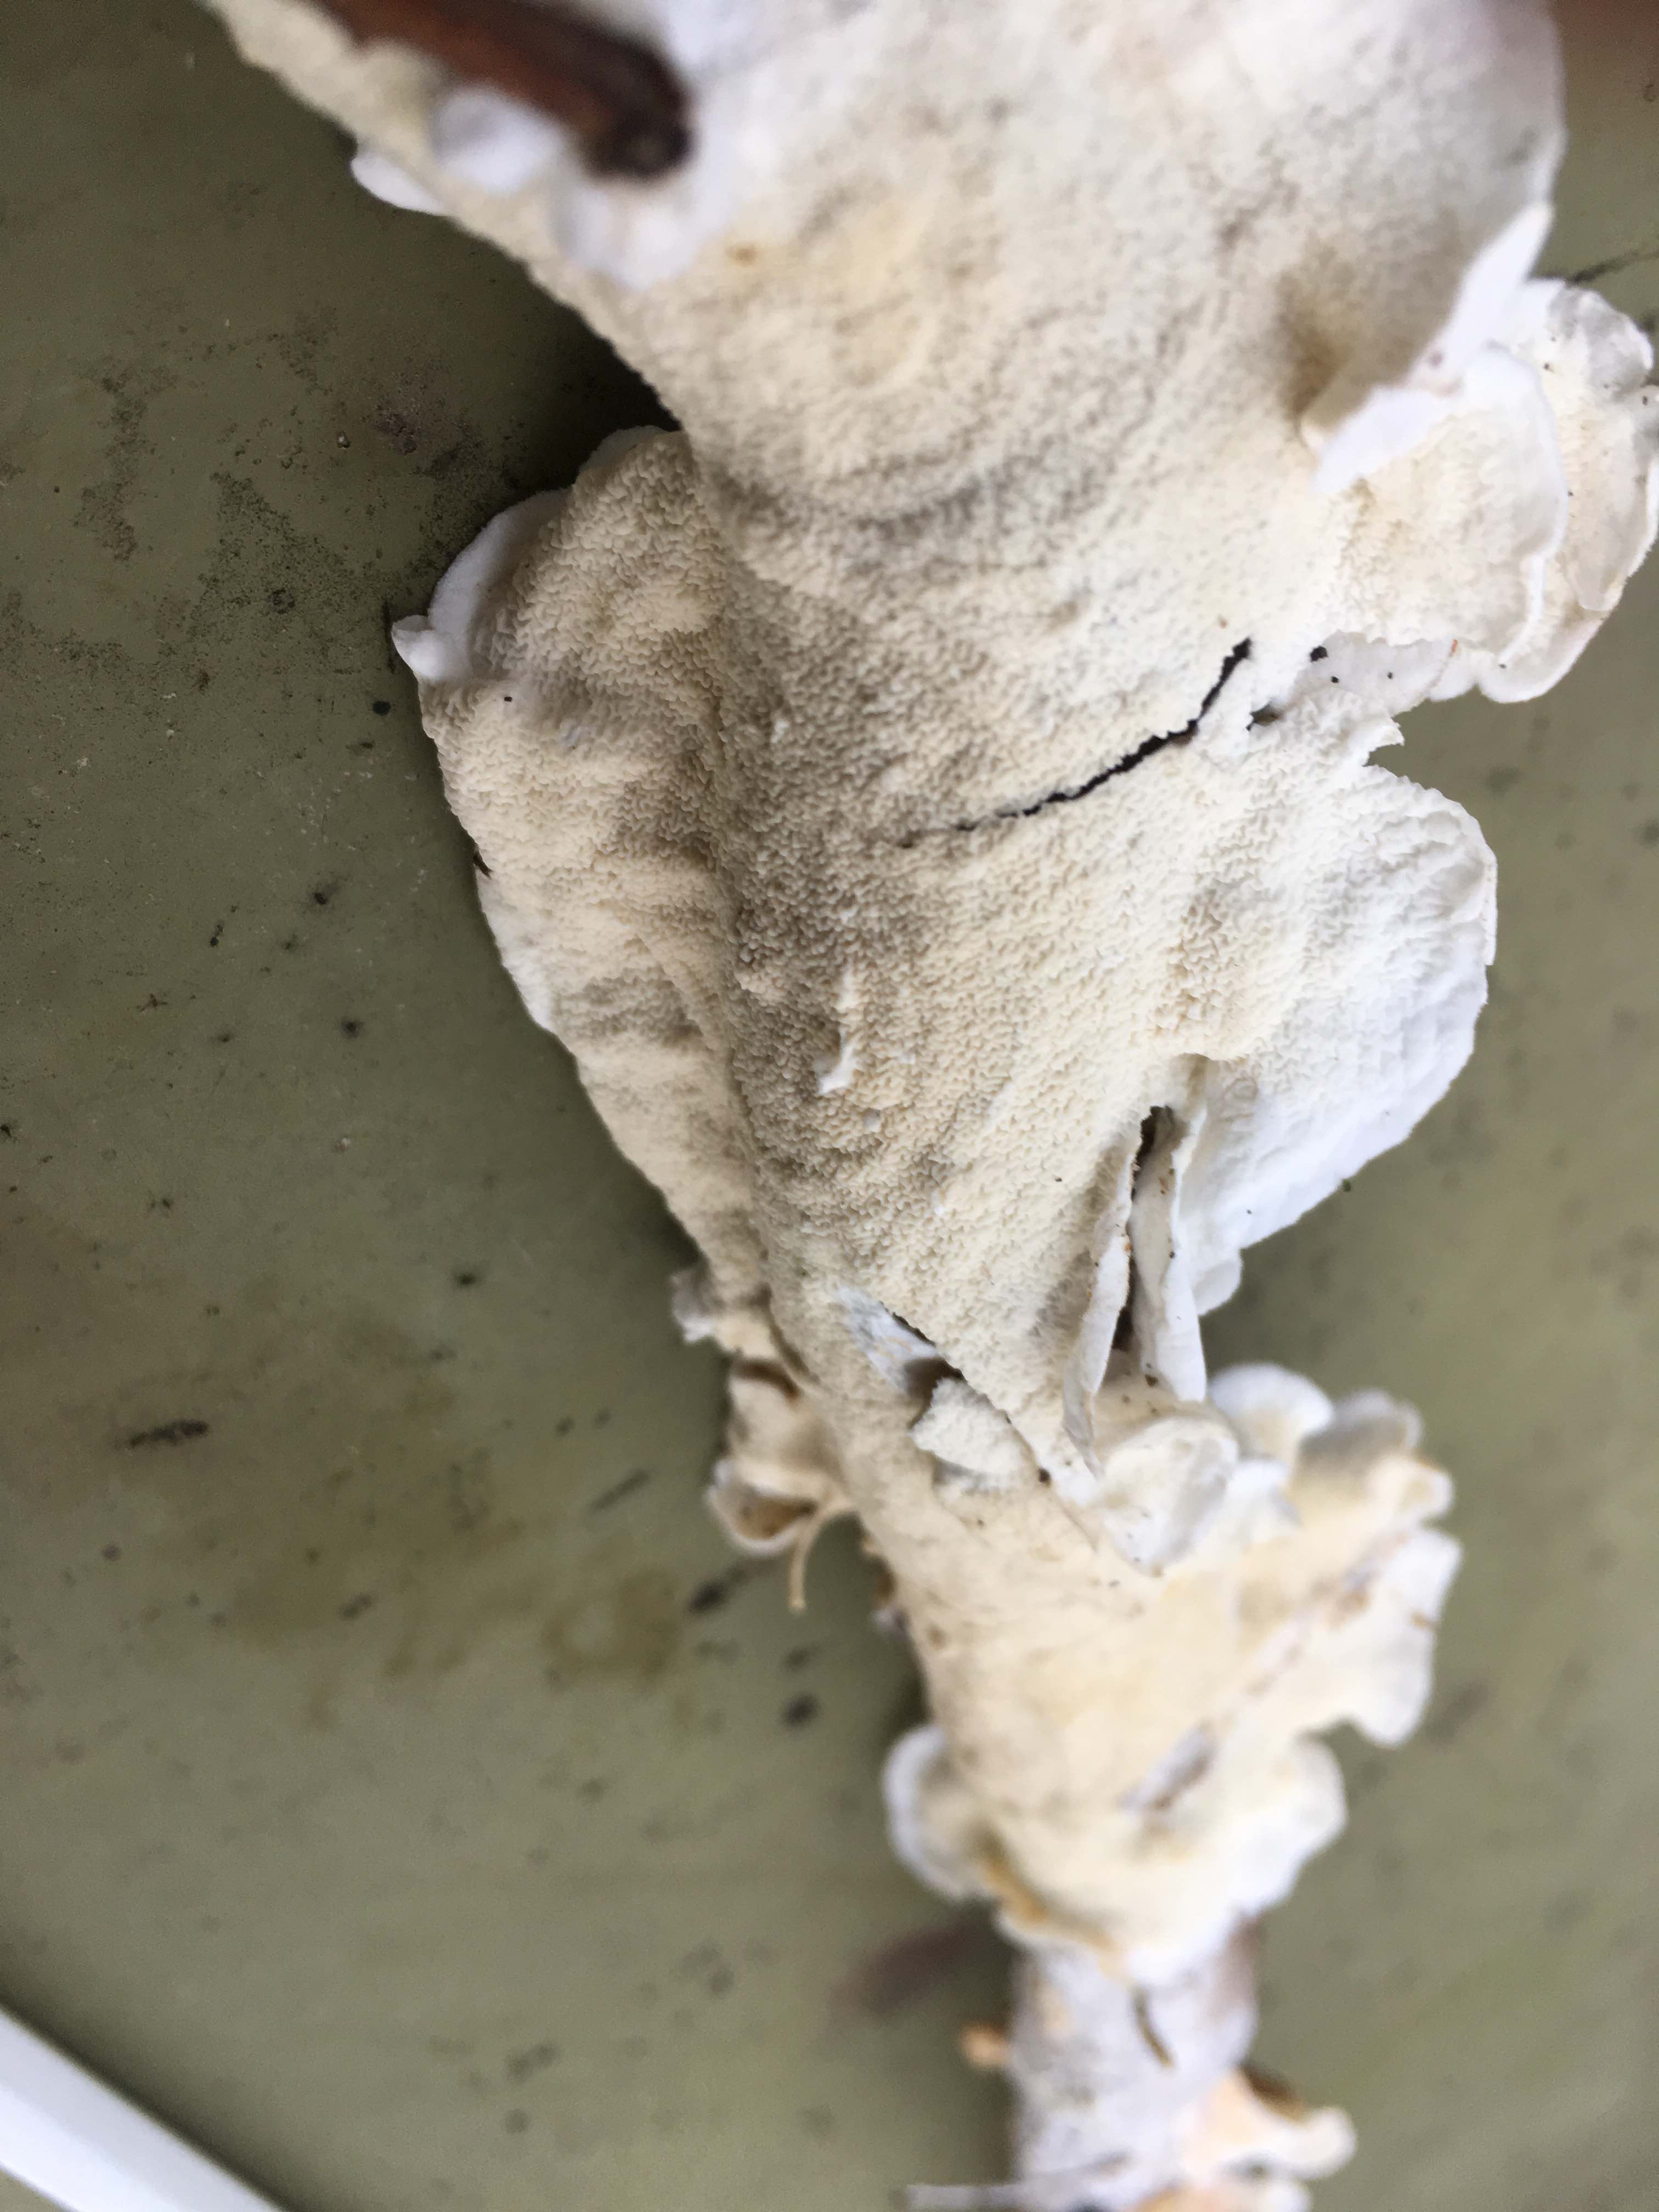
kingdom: Fungi
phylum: Basidiomycota
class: Agaricomycetes
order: Polyporales
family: Irpicaceae
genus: Byssomerulius
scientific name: Byssomerulius corium
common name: læder-åresvamp
